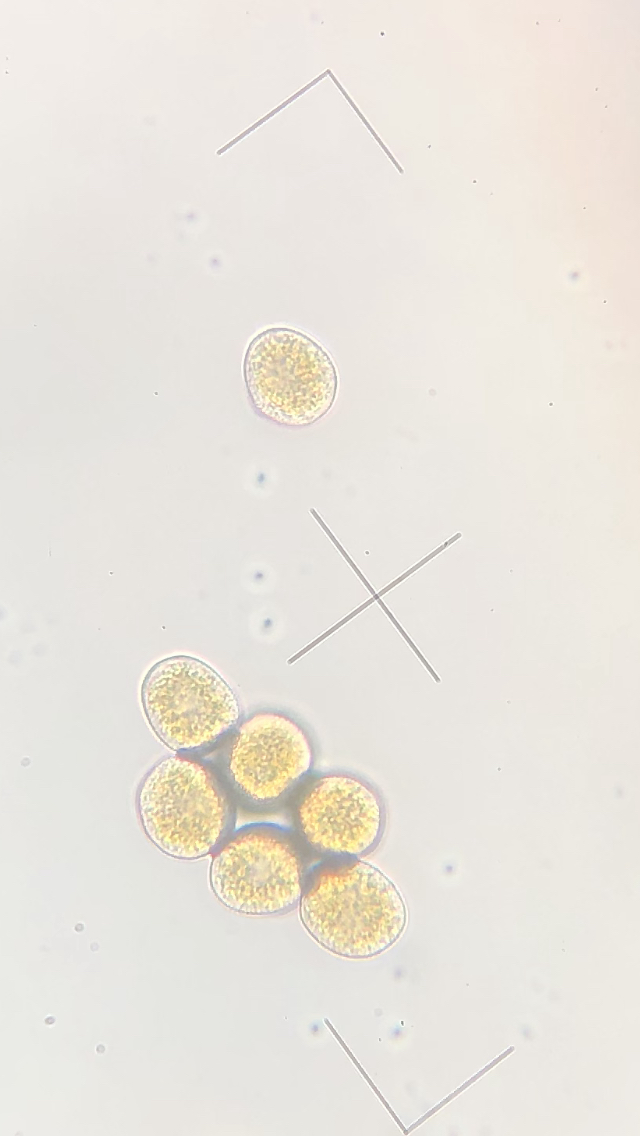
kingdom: Fungi
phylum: Basidiomycota
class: Pucciniomycetes
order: Pucciniales
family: Pucciniaceae
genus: Puccinia
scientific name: Puccinia violae
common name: viol-tvecellerust
